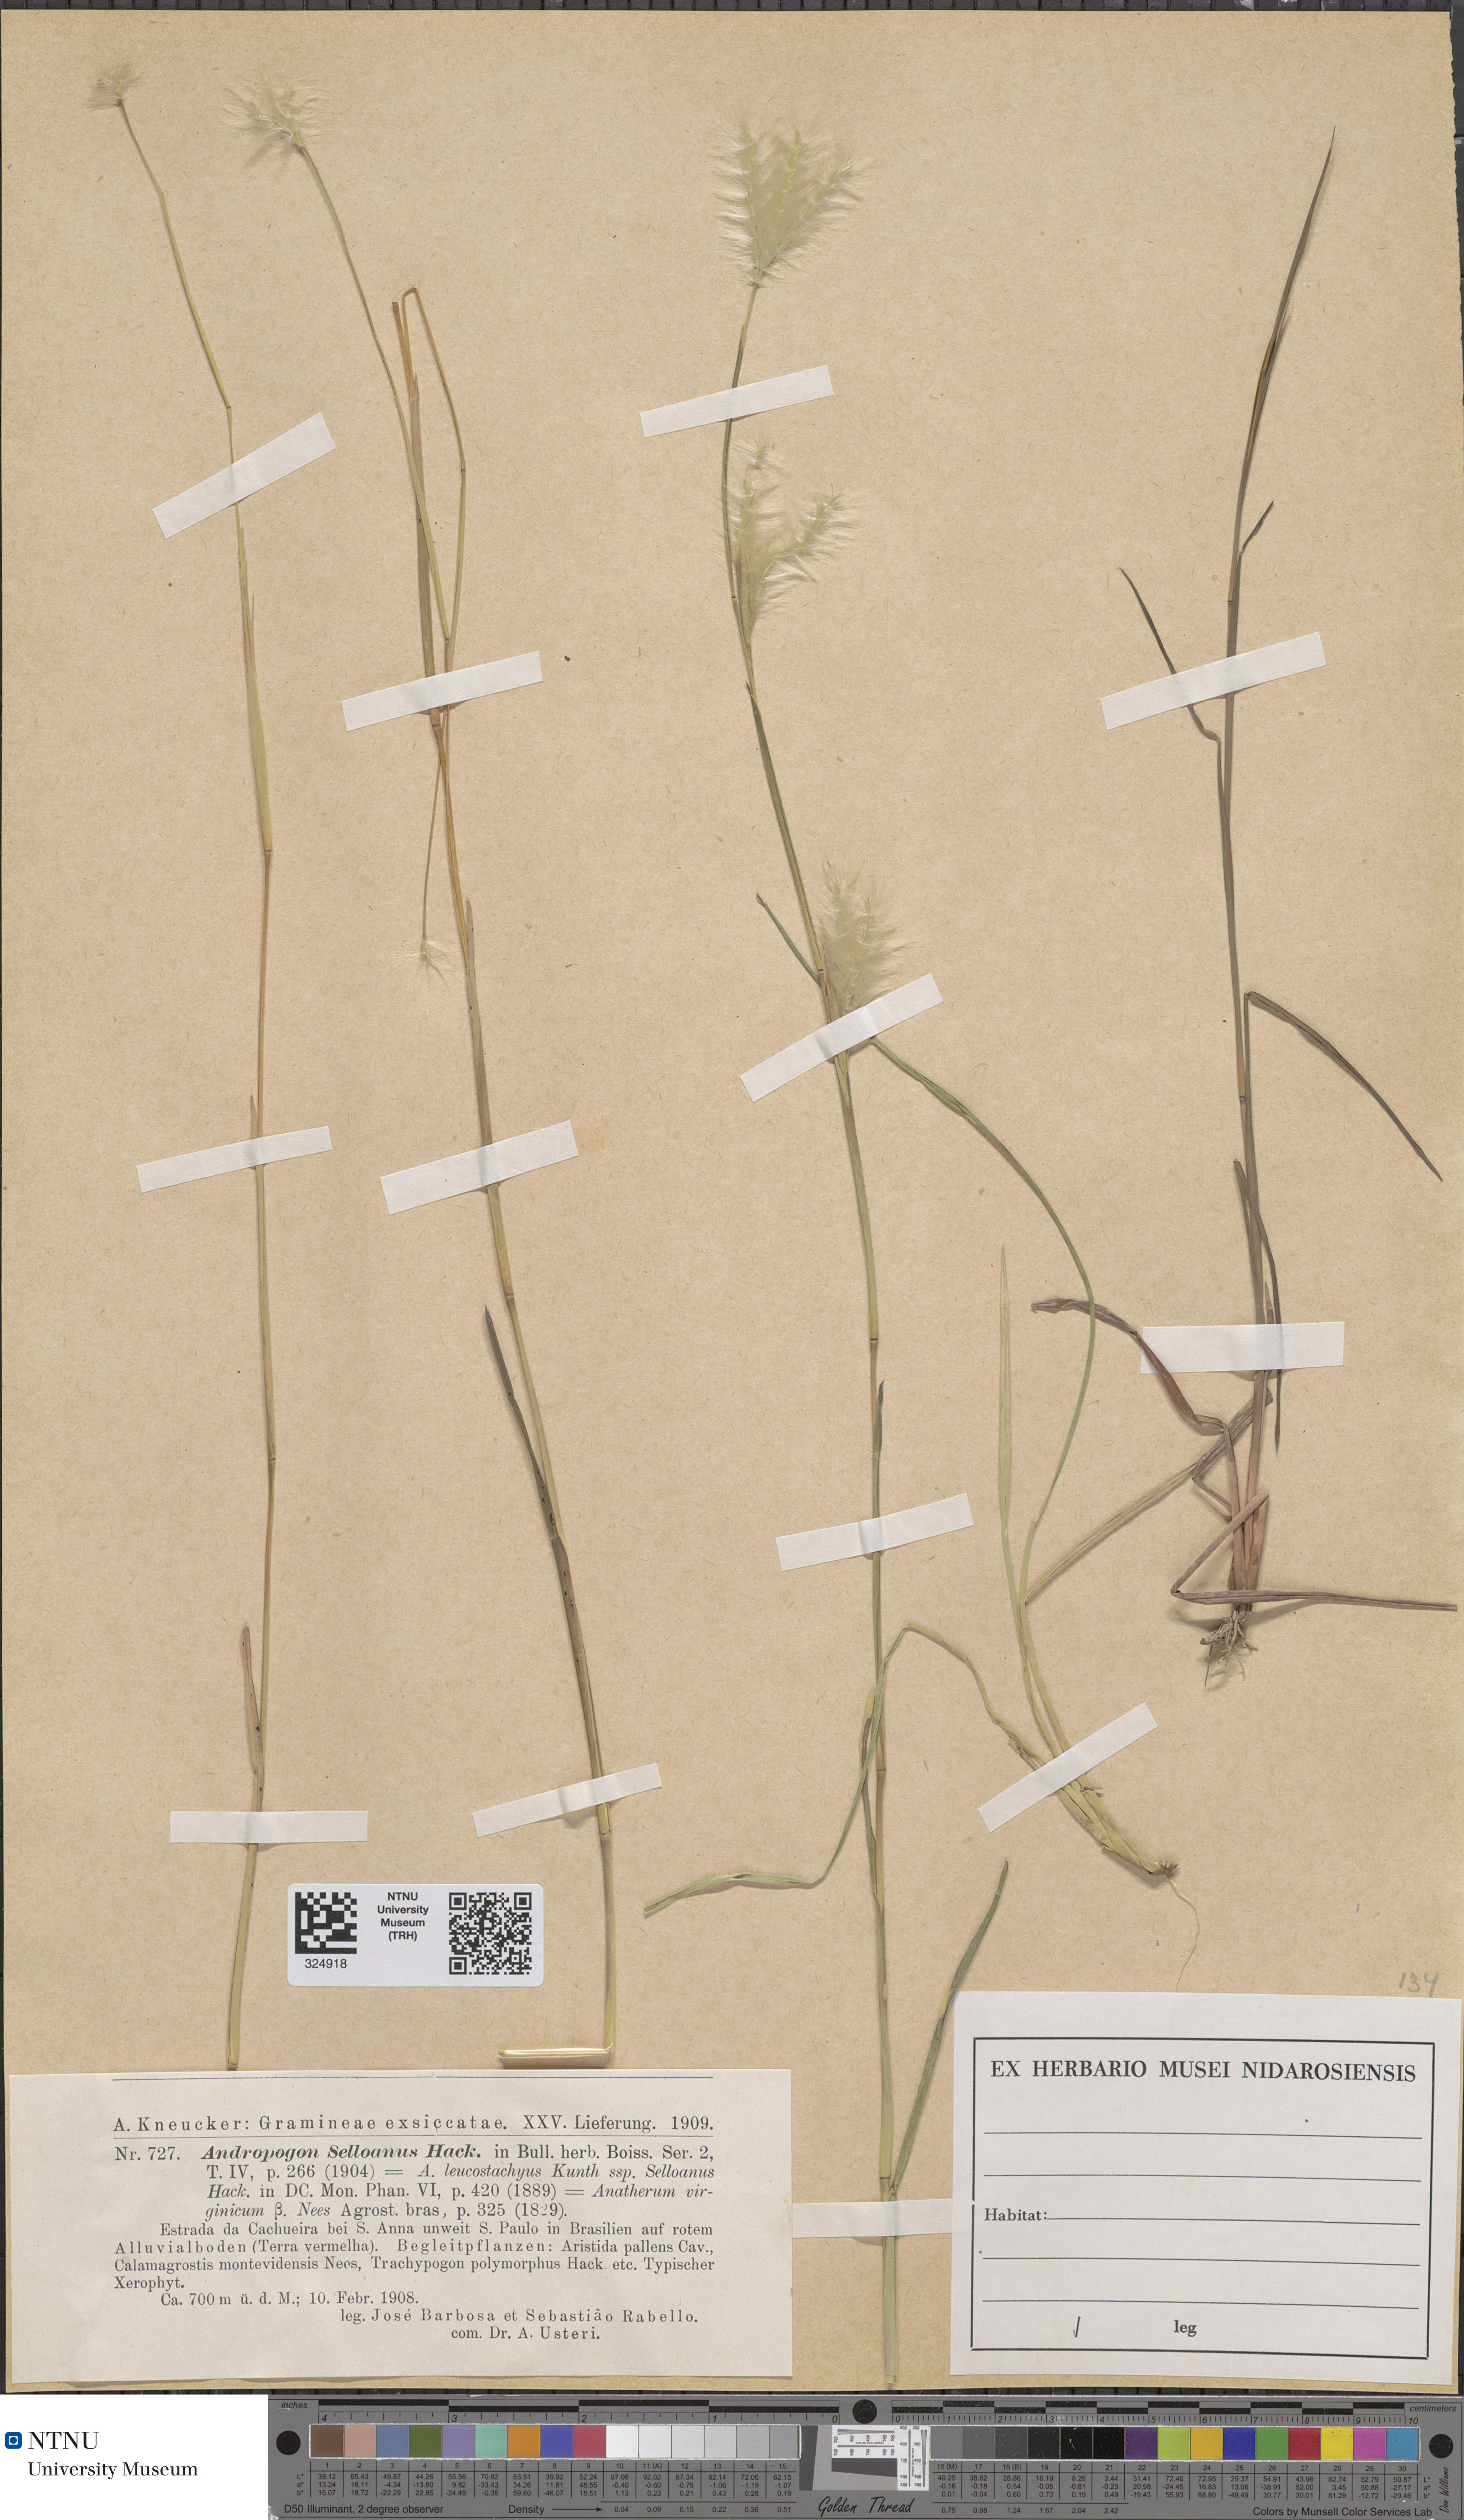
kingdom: Plantae
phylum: Tracheophyta
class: Liliopsida
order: Poales
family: Poaceae
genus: Andropogon
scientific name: Andropogon selloanus
